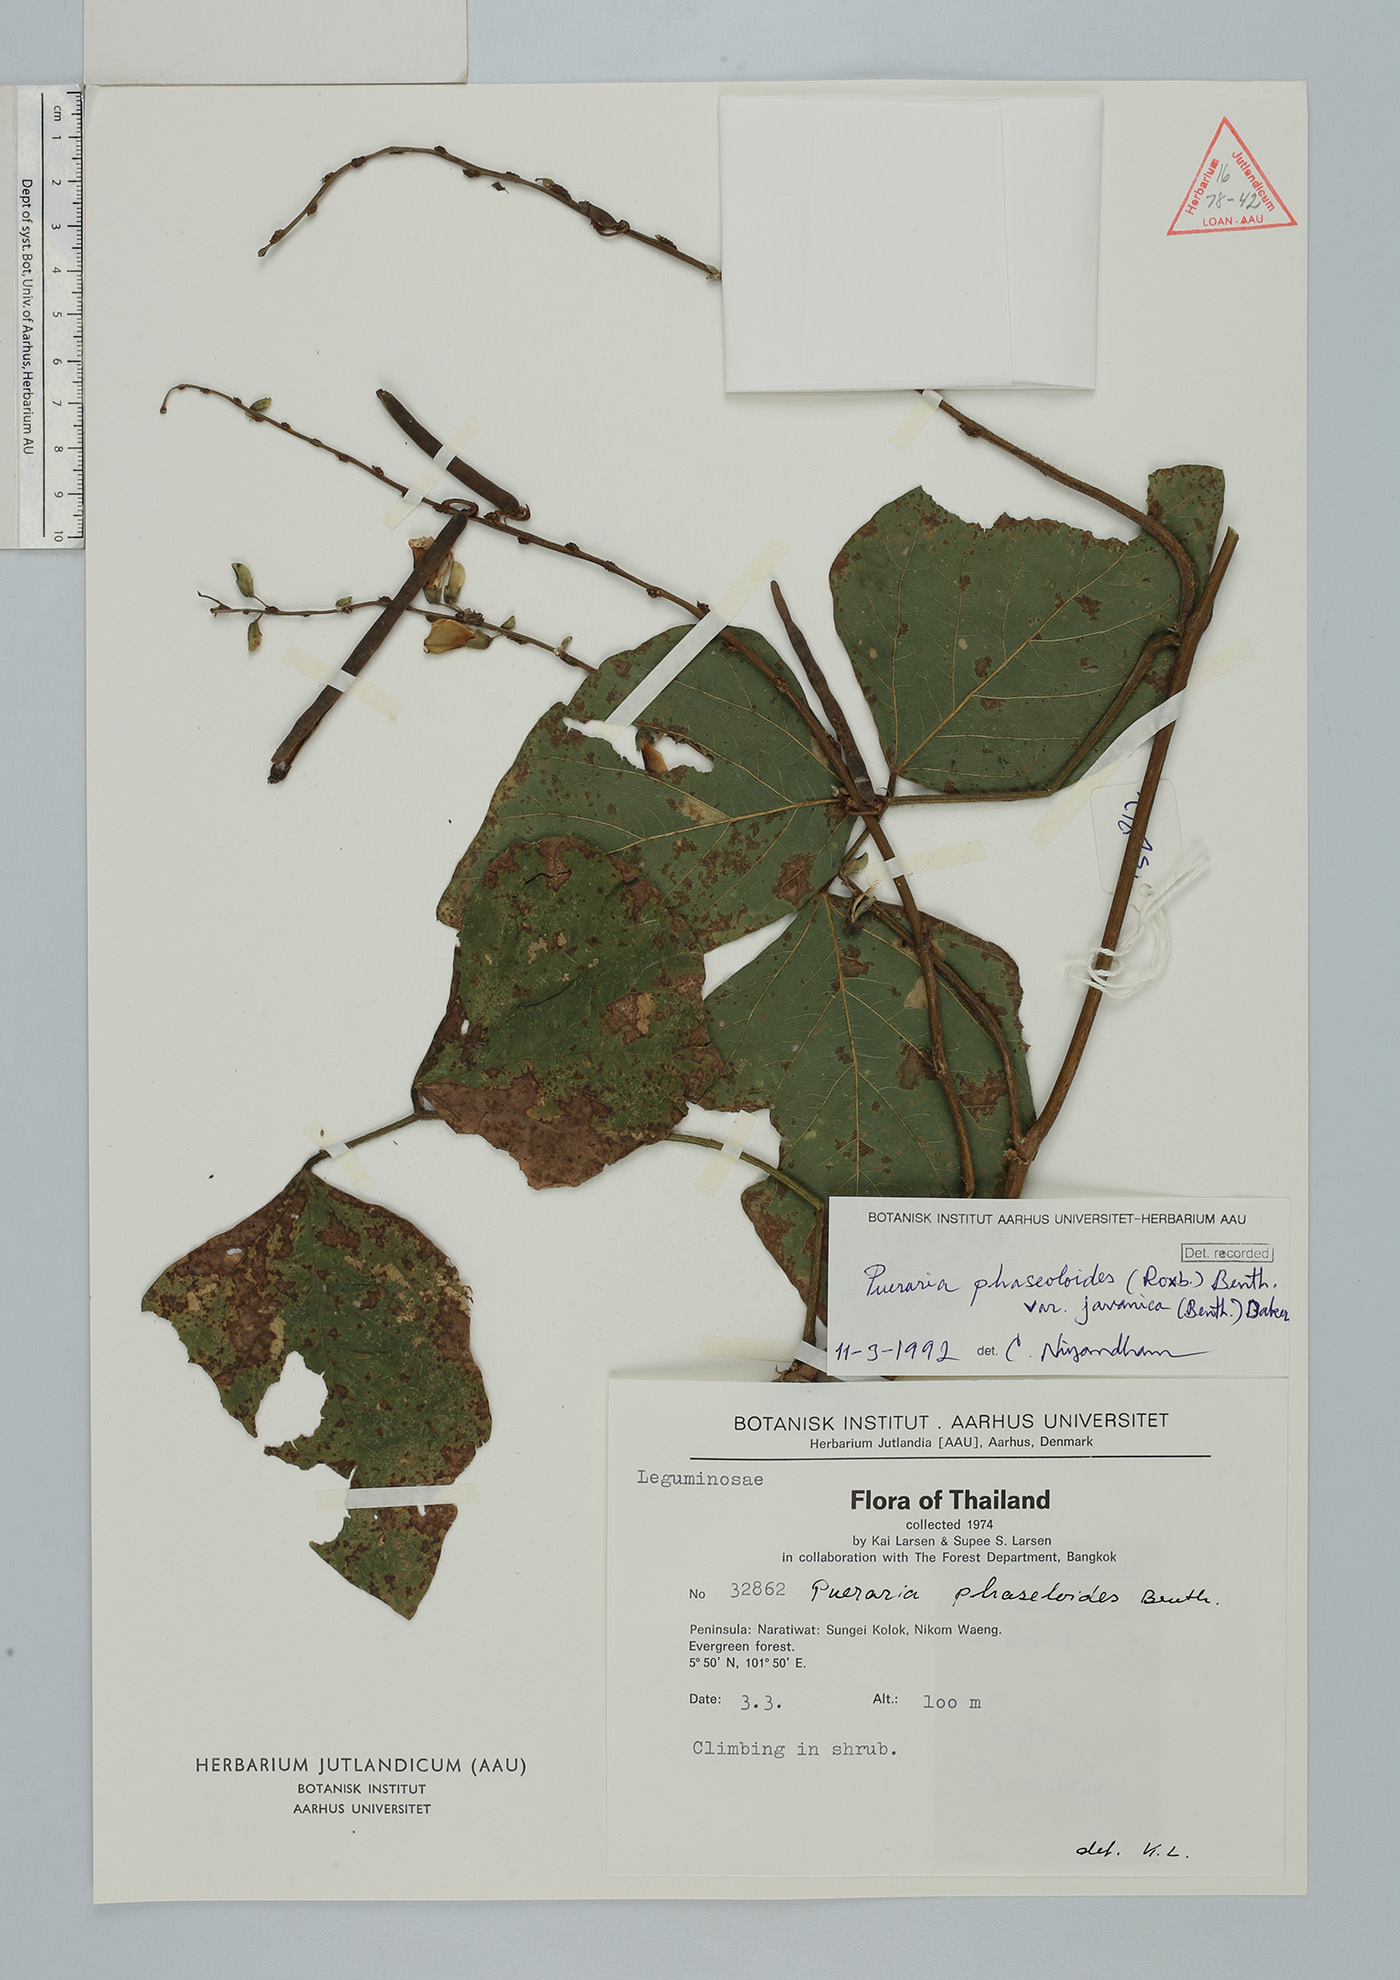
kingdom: Plantae
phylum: Tracheophyta
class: Magnoliopsida
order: Fabales
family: Fabaceae
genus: Neustanthus
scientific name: Neustanthus phaseoloides
